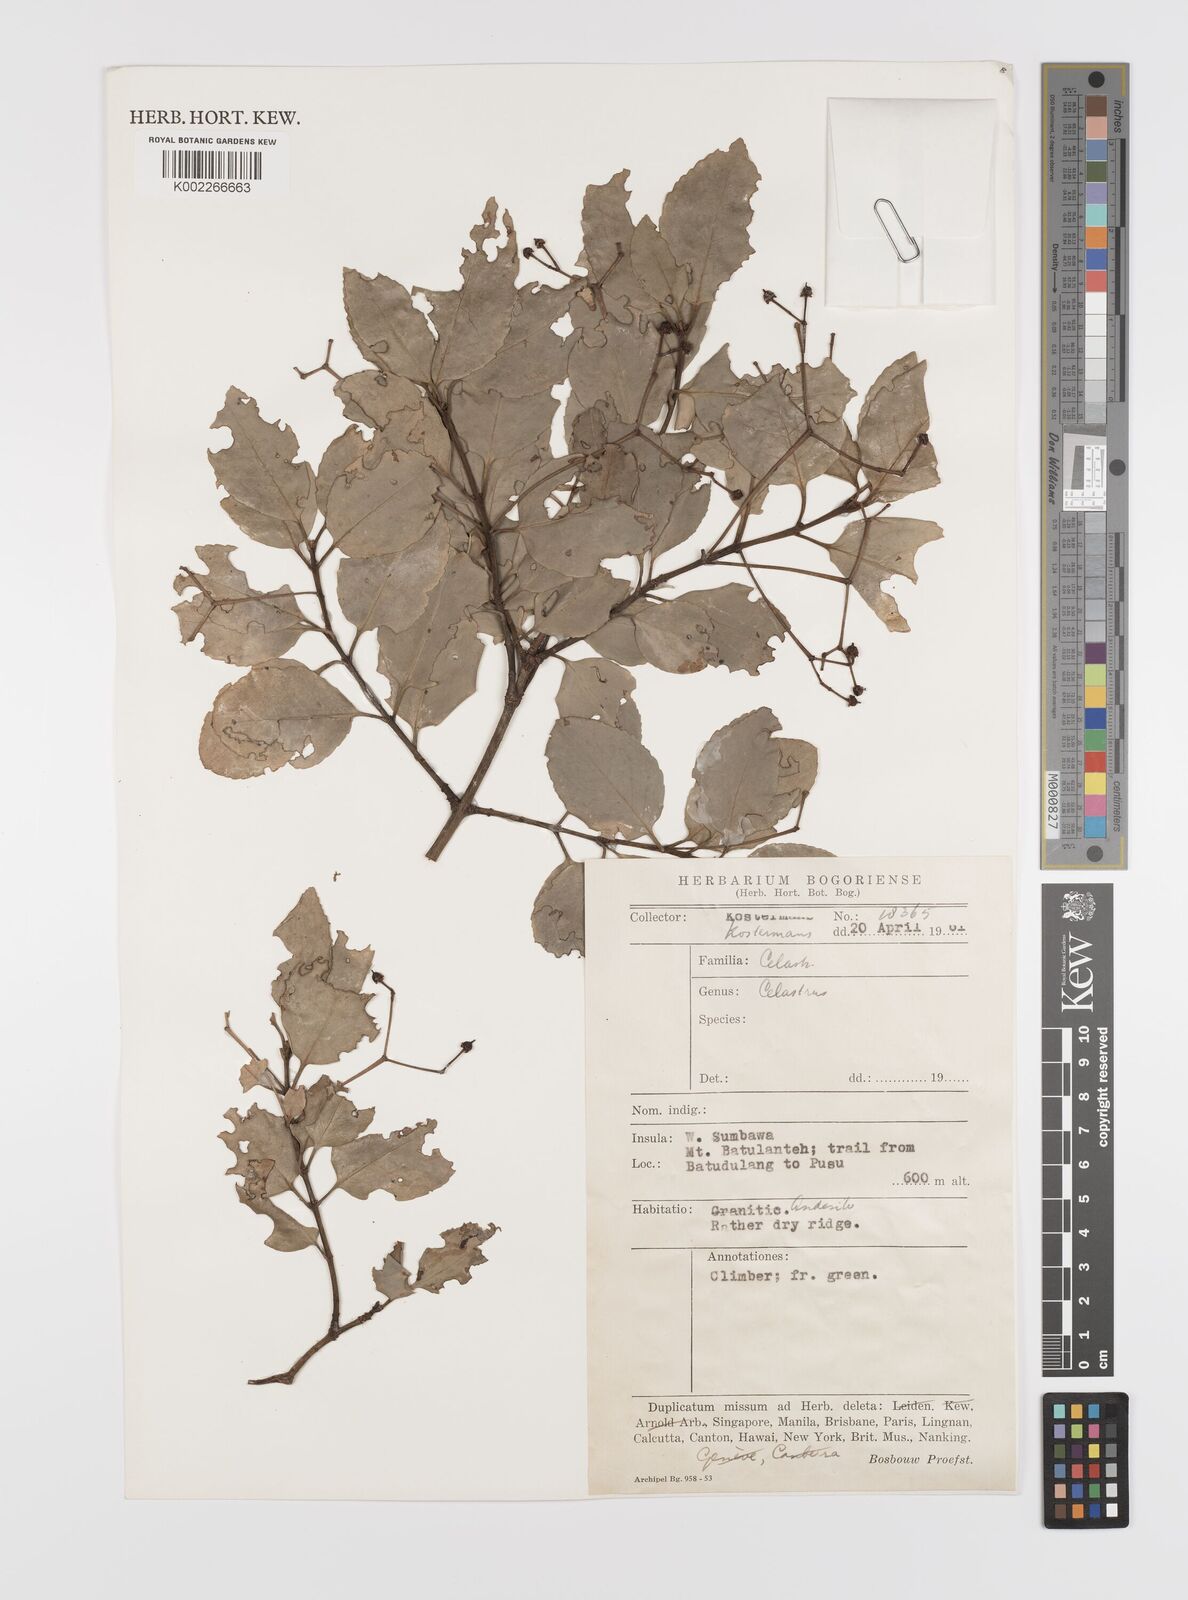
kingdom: Plantae
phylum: Tracheophyta
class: Magnoliopsida
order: Celastrales
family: Celastraceae
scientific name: Celastraceae
